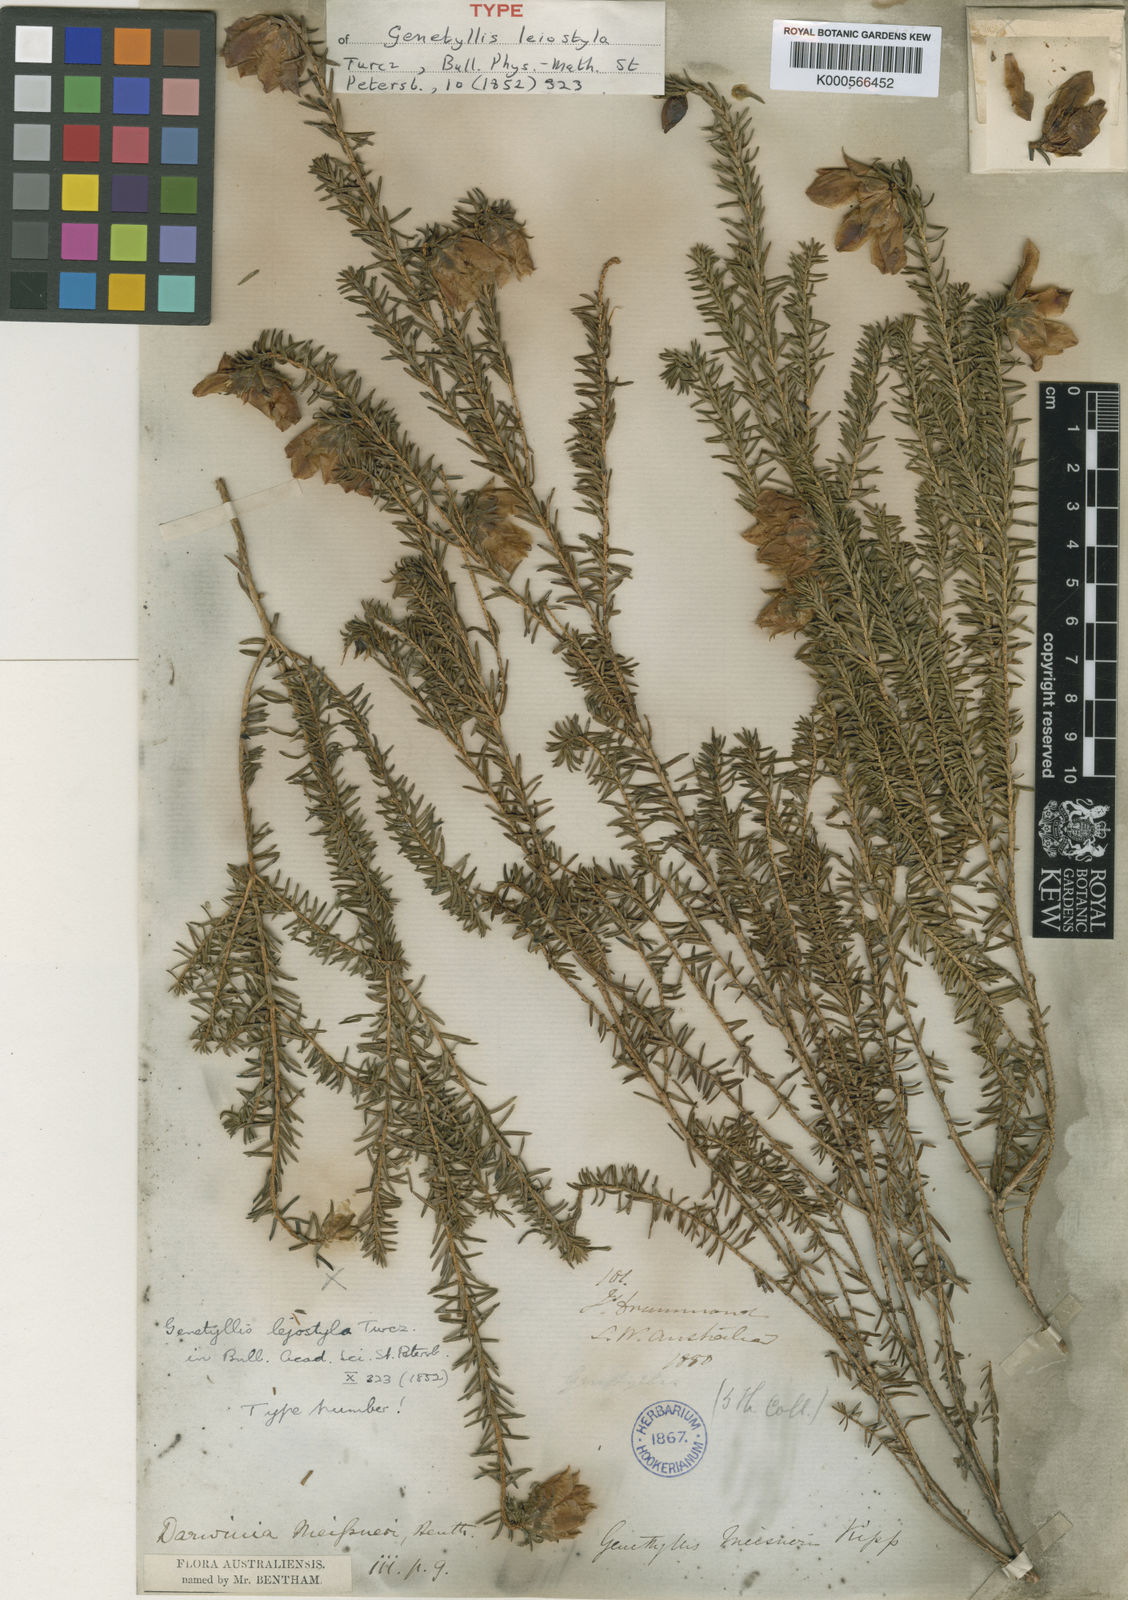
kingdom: Plantae
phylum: Tracheophyta
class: Magnoliopsida
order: Myrtales
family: Myrtaceae
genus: Darwinia
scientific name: Darwinia oxylepis
